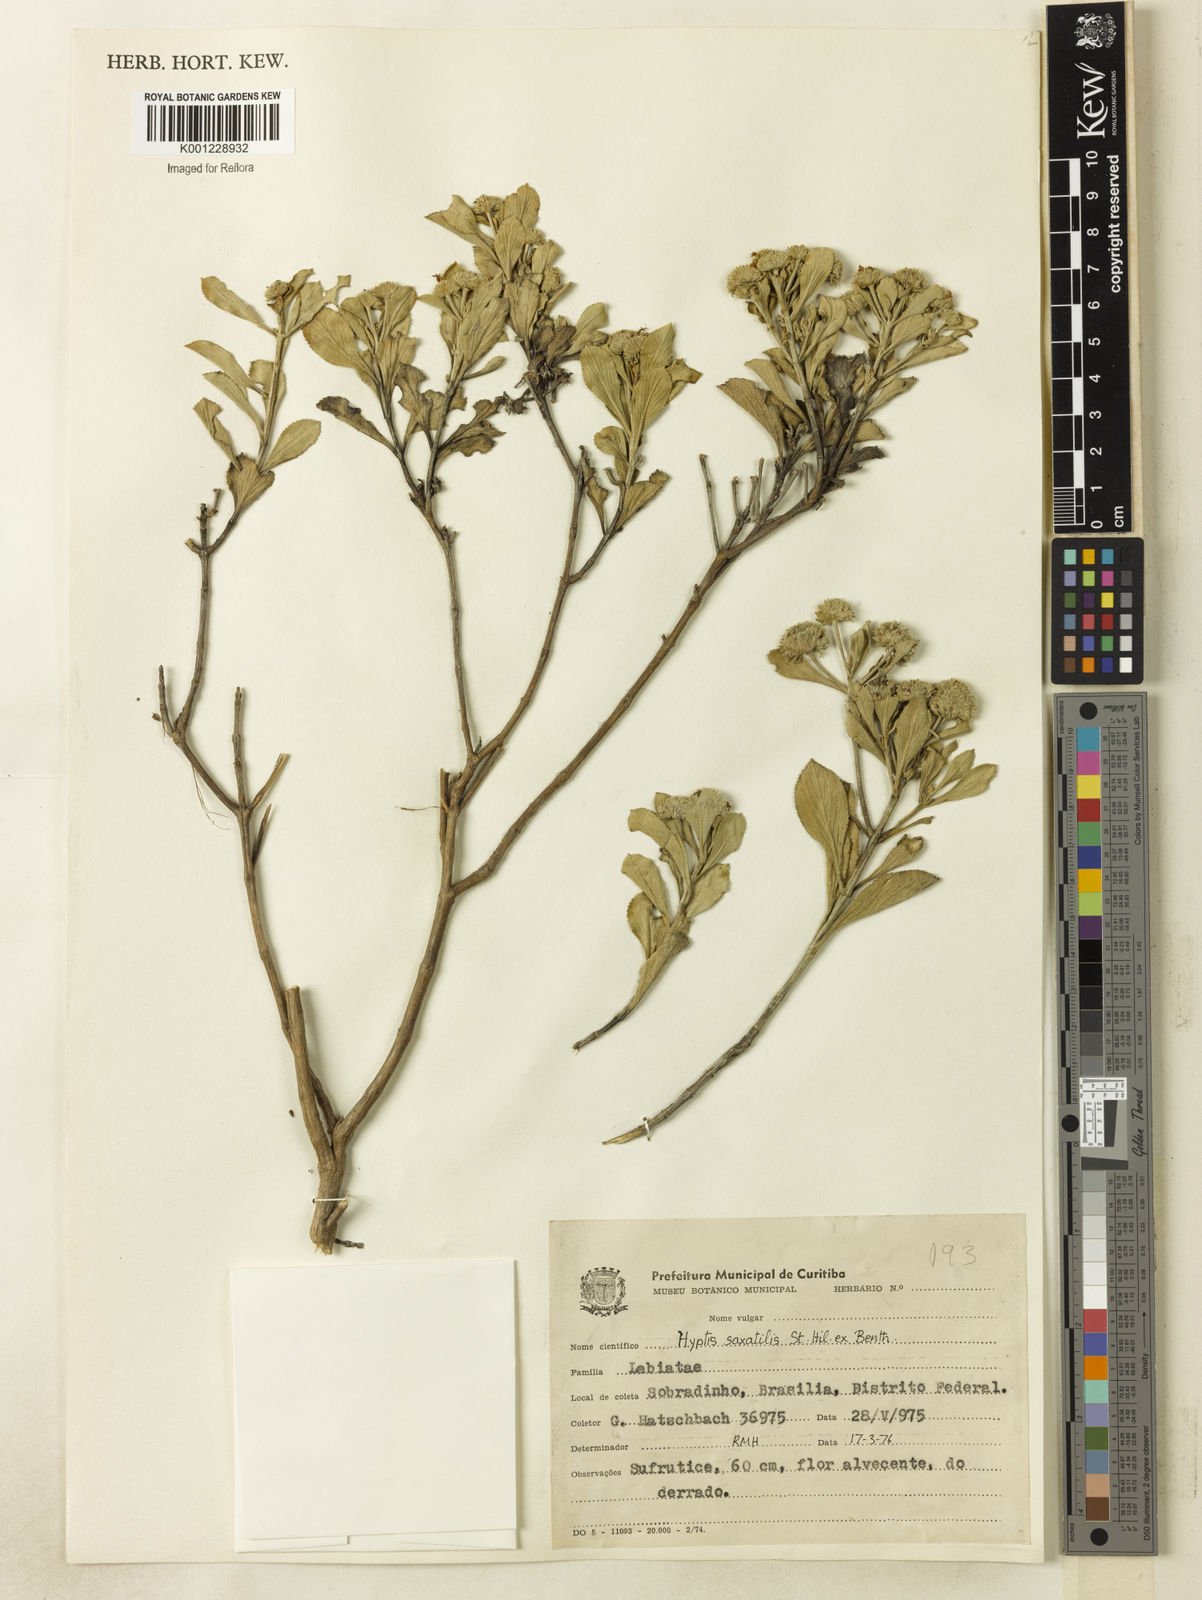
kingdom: Plantae
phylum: Tracheophyta
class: Magnoliopsida
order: Lamiales
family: Lamiaceae
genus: Hyptis
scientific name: Hyptis saxatilis
